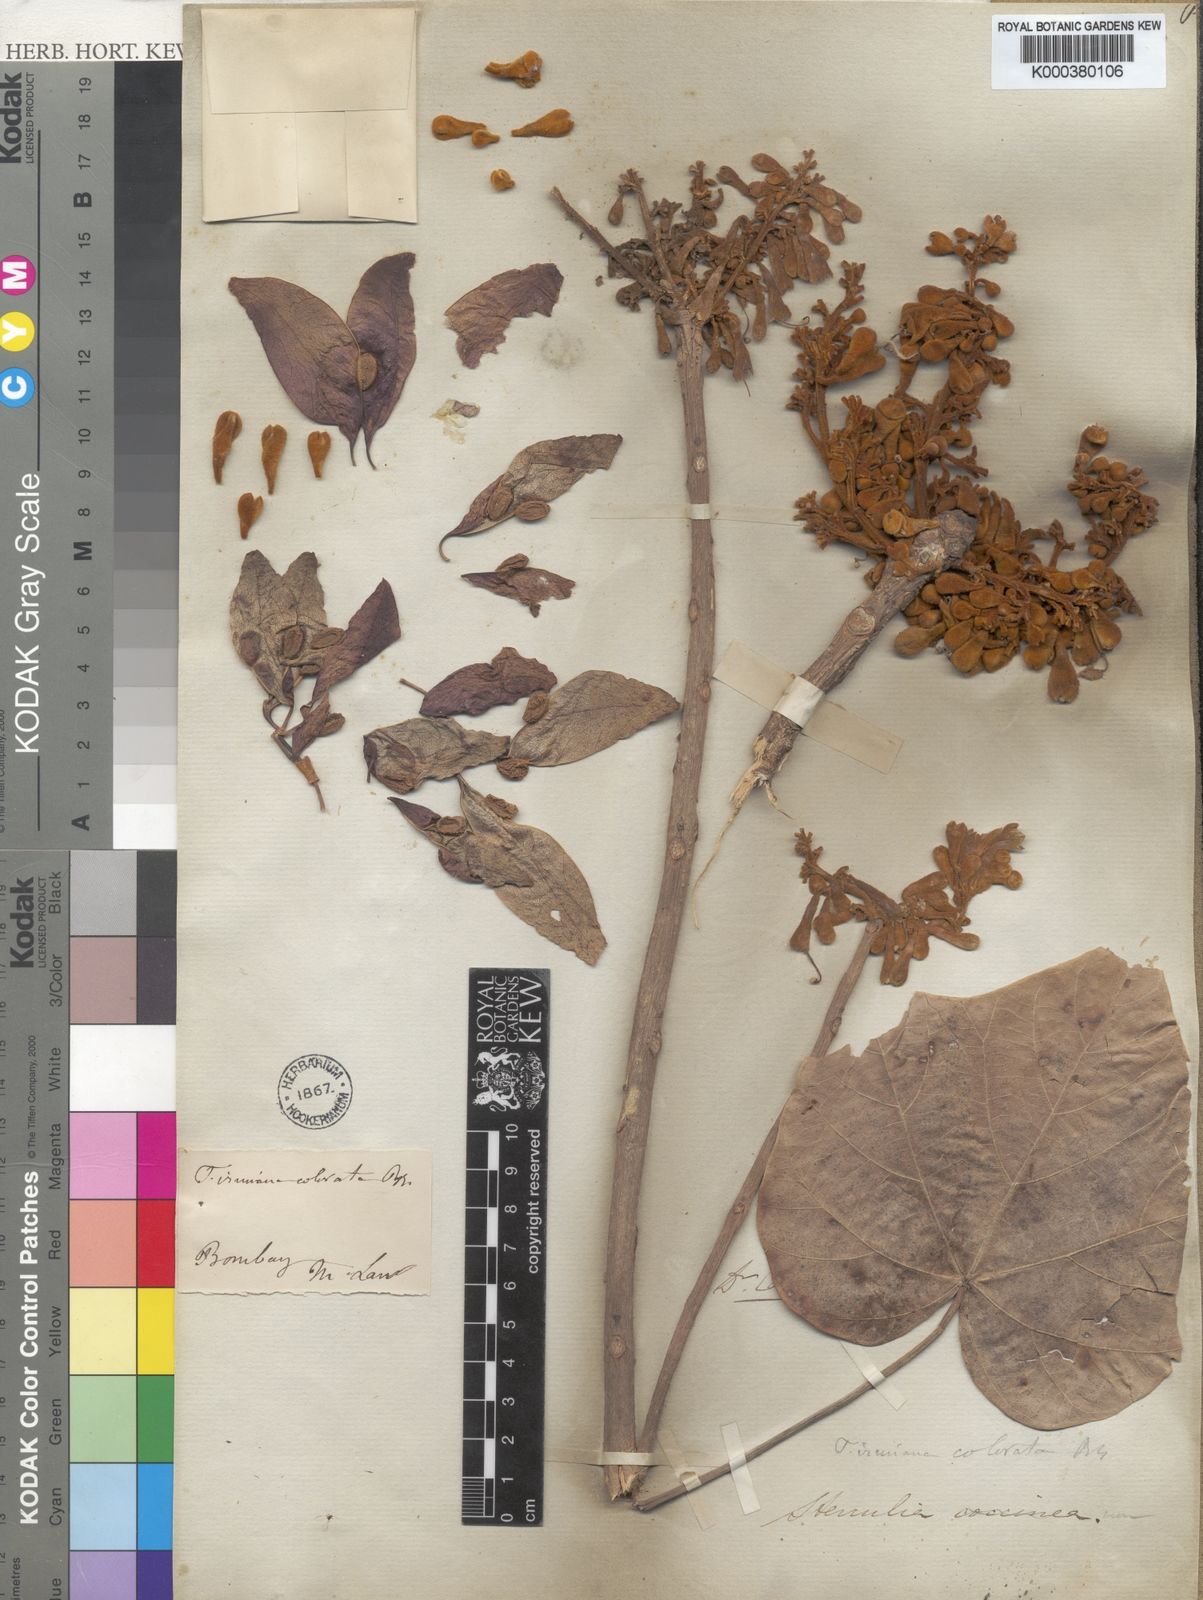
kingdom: Plantae
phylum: Tracheophyta
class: Magnoliopsida
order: Malvales
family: Malvaceae
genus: Firmiana
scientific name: Firmiana colorata
